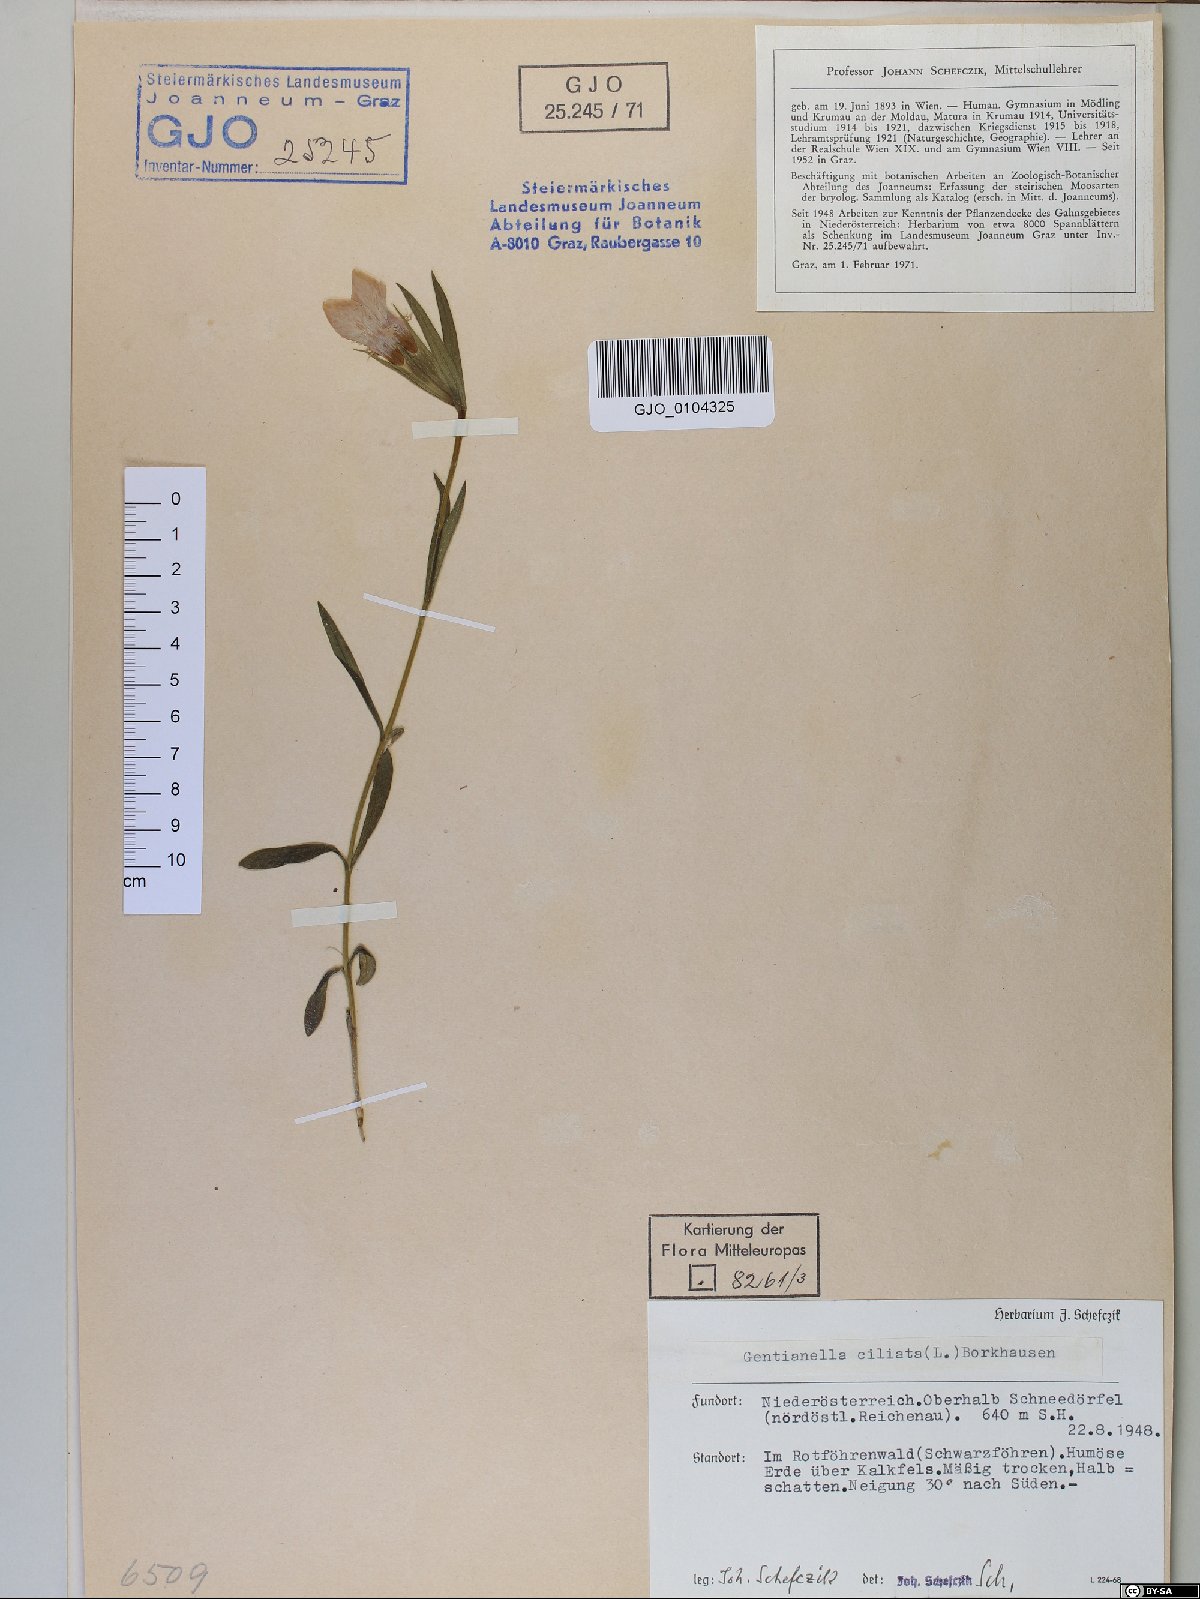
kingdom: Plantae
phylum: Tracheophyta
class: Magnoliopsida
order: Gentianales
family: Gentianaceae
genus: Gentianopsis
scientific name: Gentianopsis ciliata
